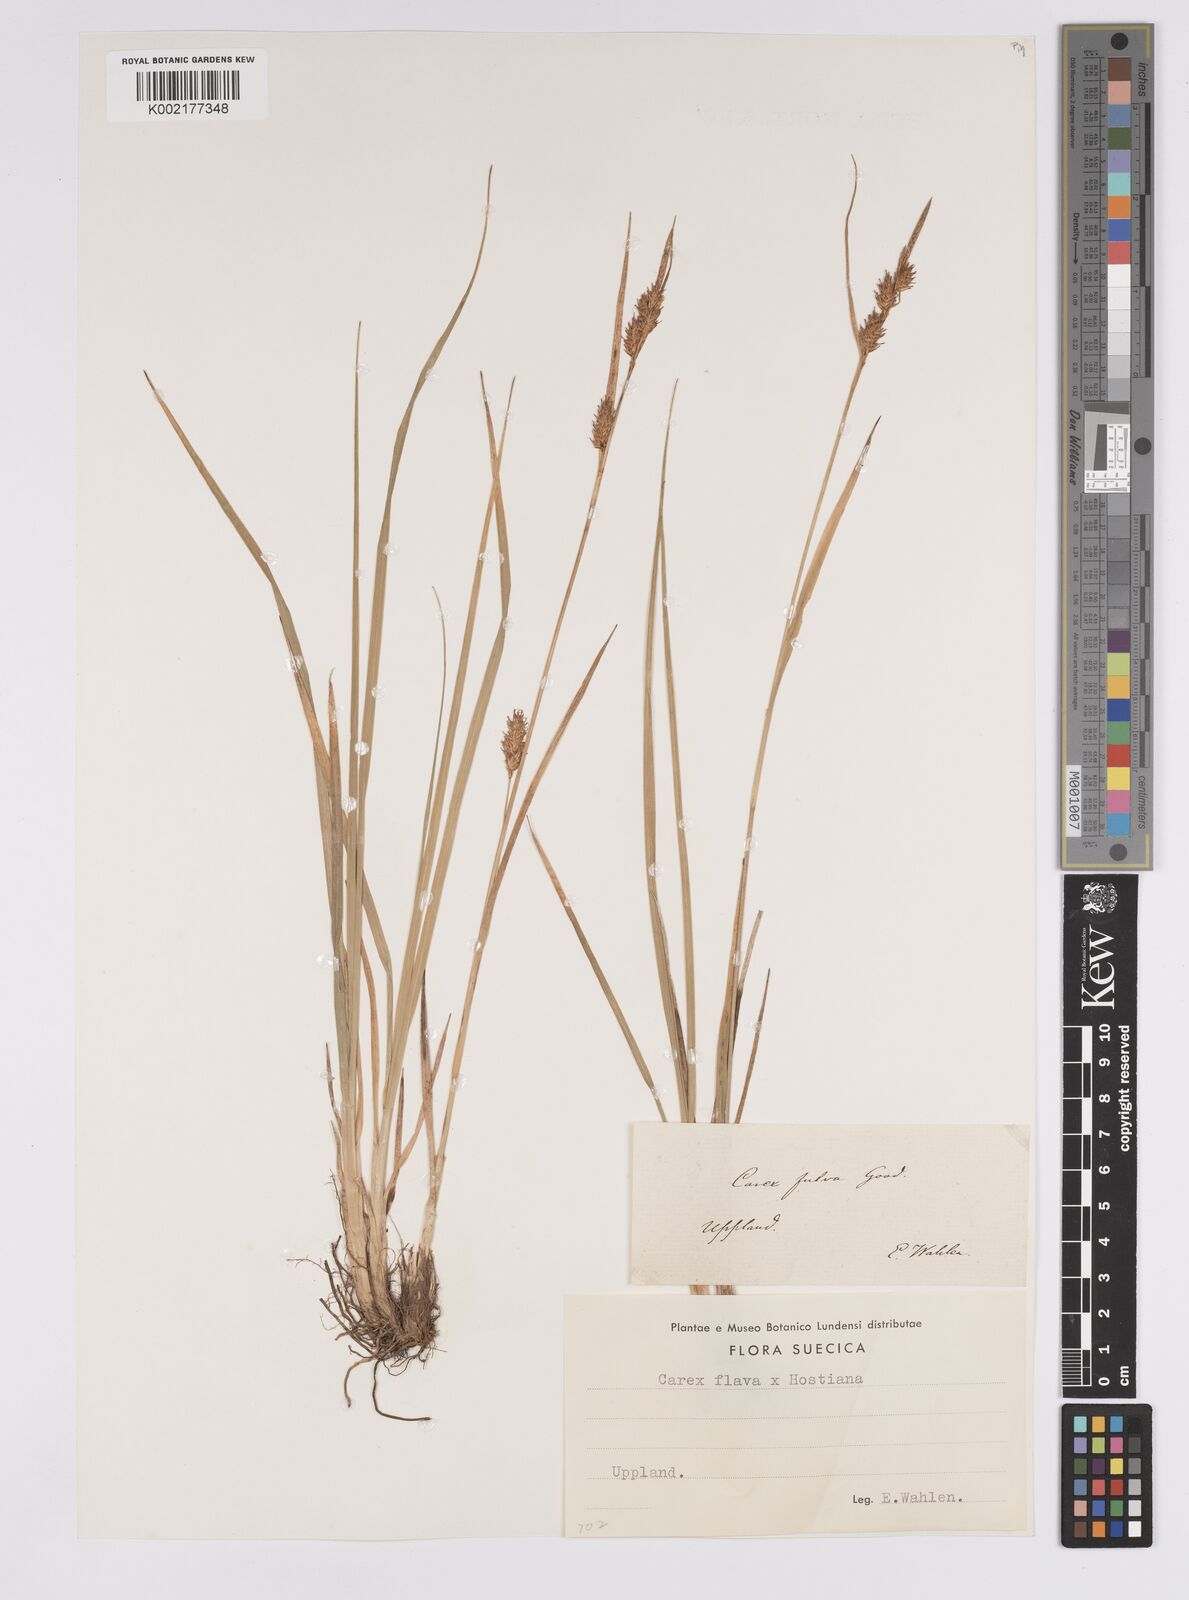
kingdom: Plantae
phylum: Tracheophyta
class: Liliopsida
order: Poales
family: Cyperaceae
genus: Carex
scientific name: Carex hostiana
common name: Tawny sedge
